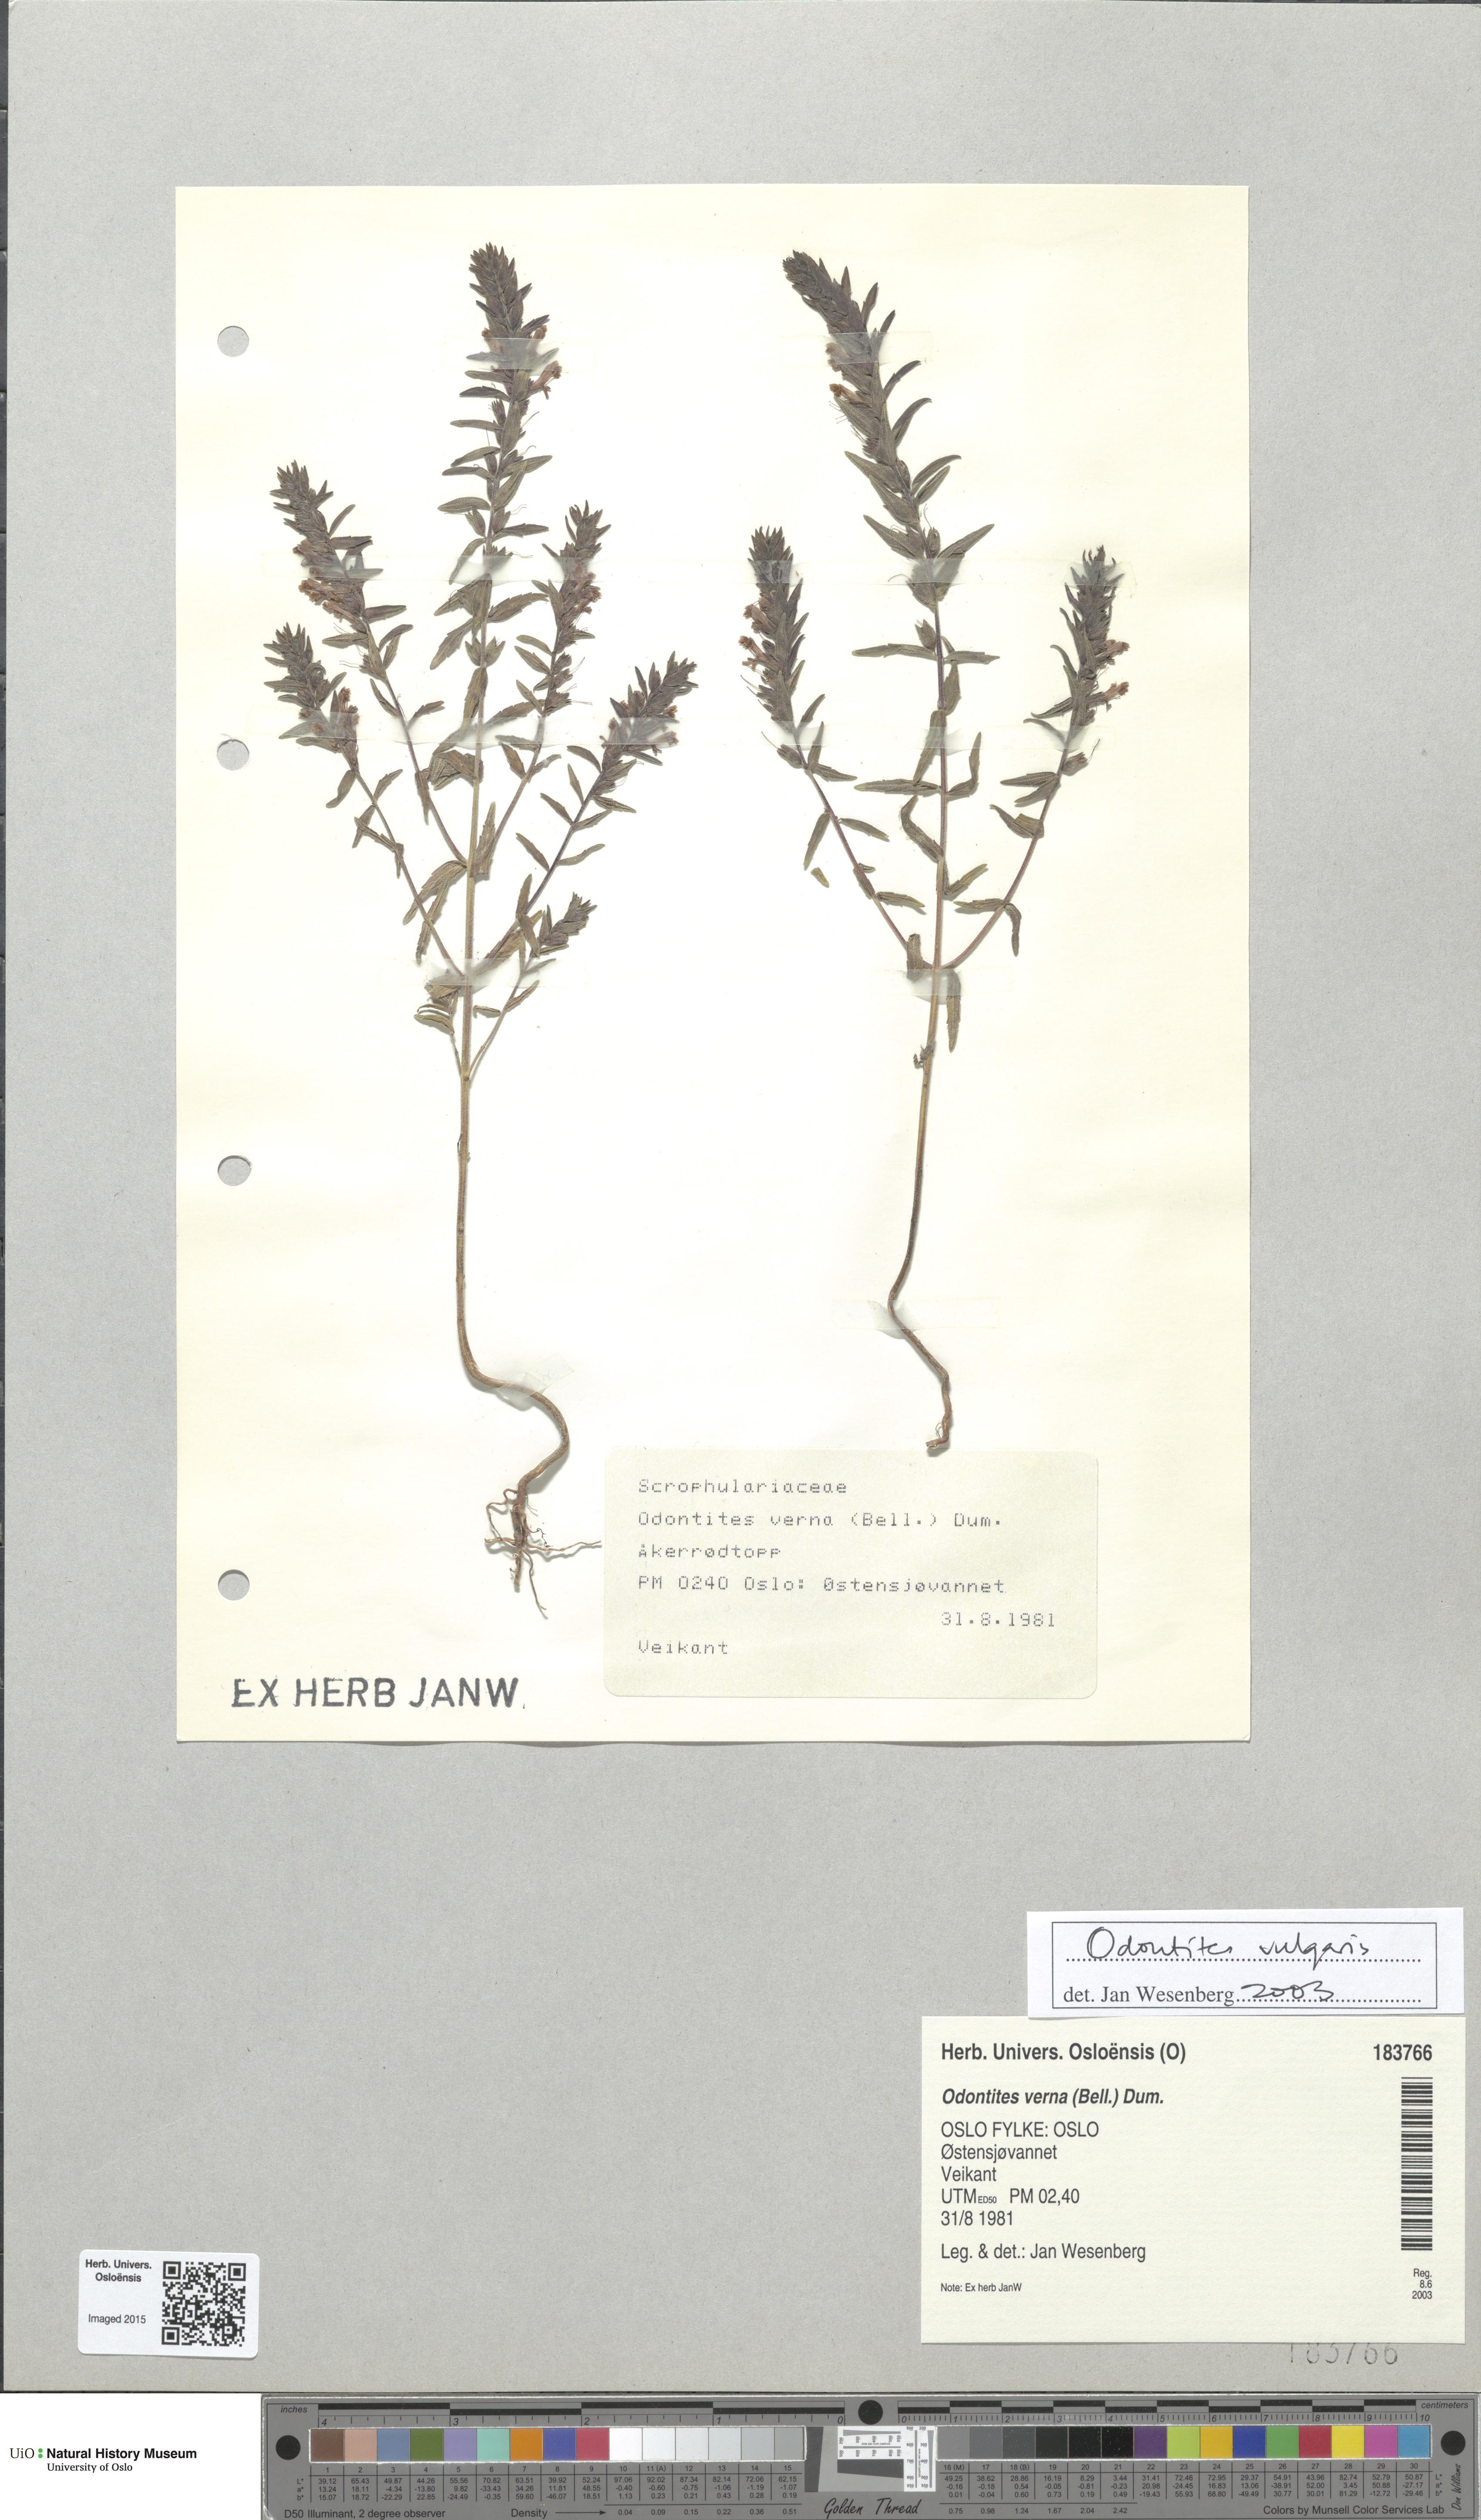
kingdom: Plantae
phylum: Tracheophyta
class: Magnoliopsida
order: Lamiales
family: Orobanchaceae
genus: Odontites
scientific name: Odontites vulgaris
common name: Broomrape
